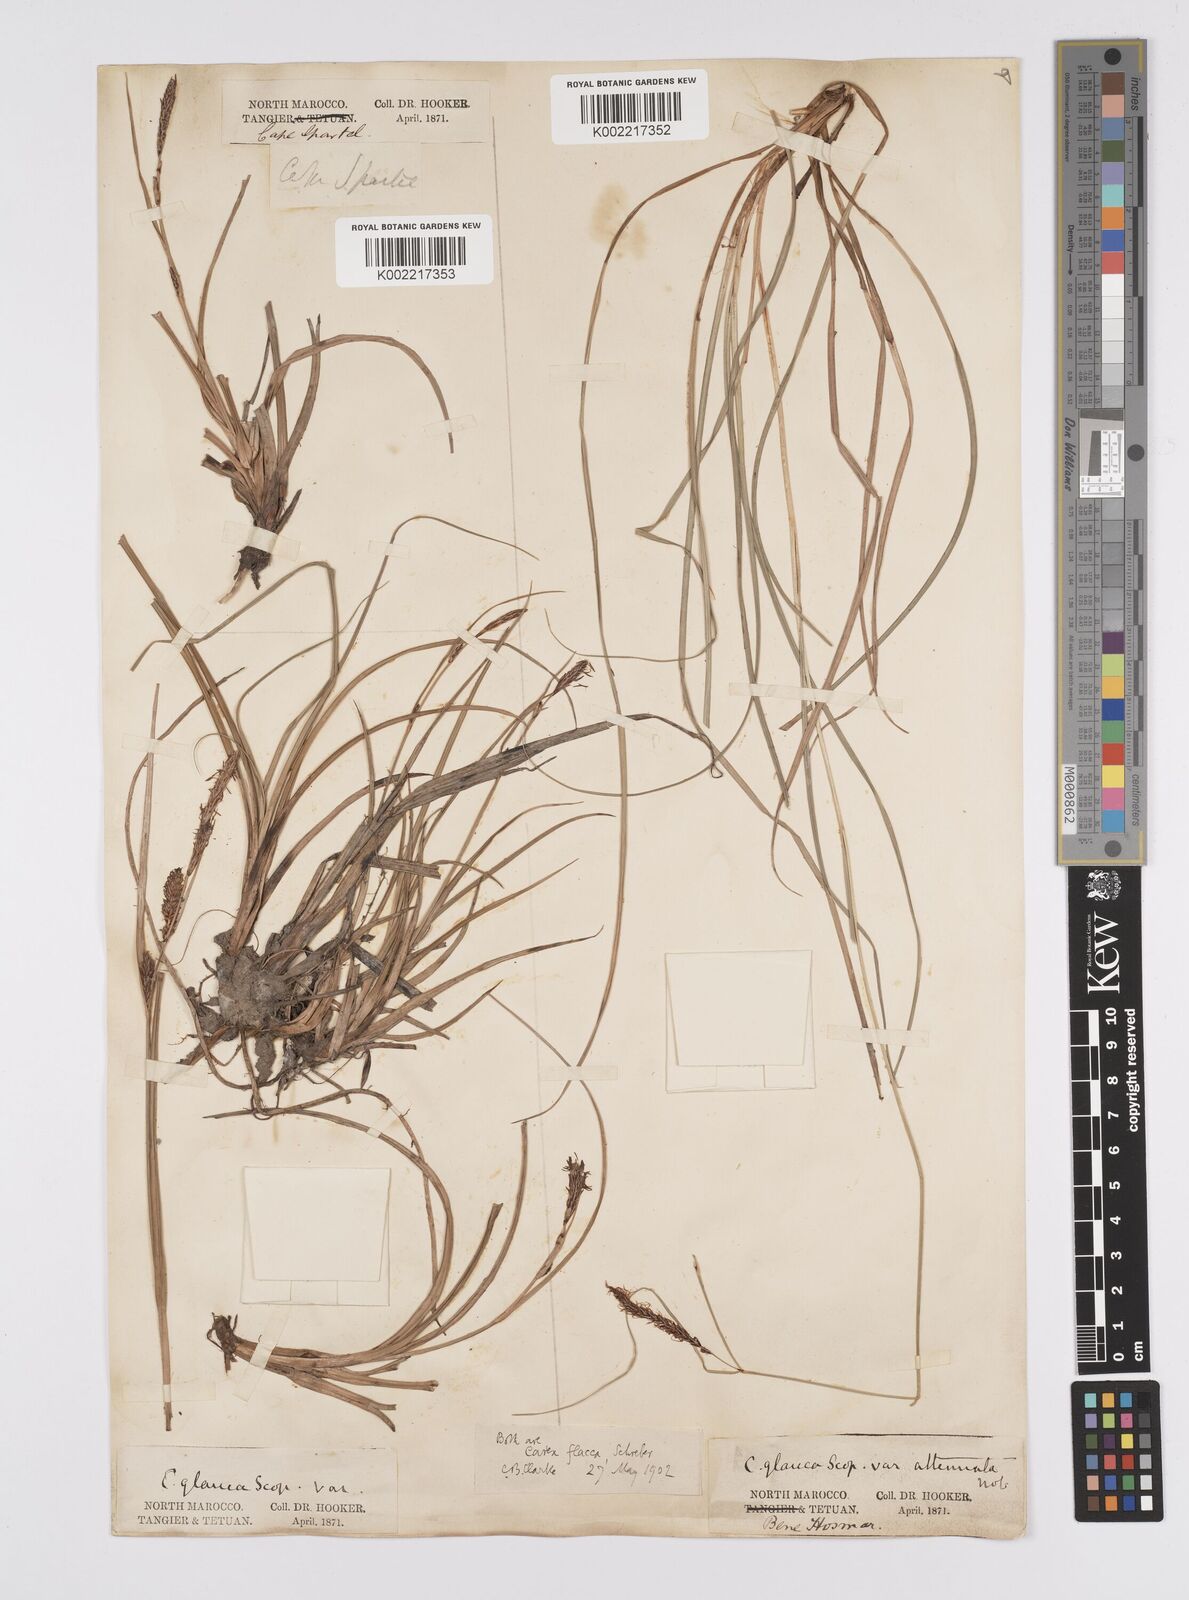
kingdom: Plantae
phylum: Tracheophyta
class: Liliopsida
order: Poales
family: Cyperaceae
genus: Carex
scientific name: Carex flacca
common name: Glaucous sedge
